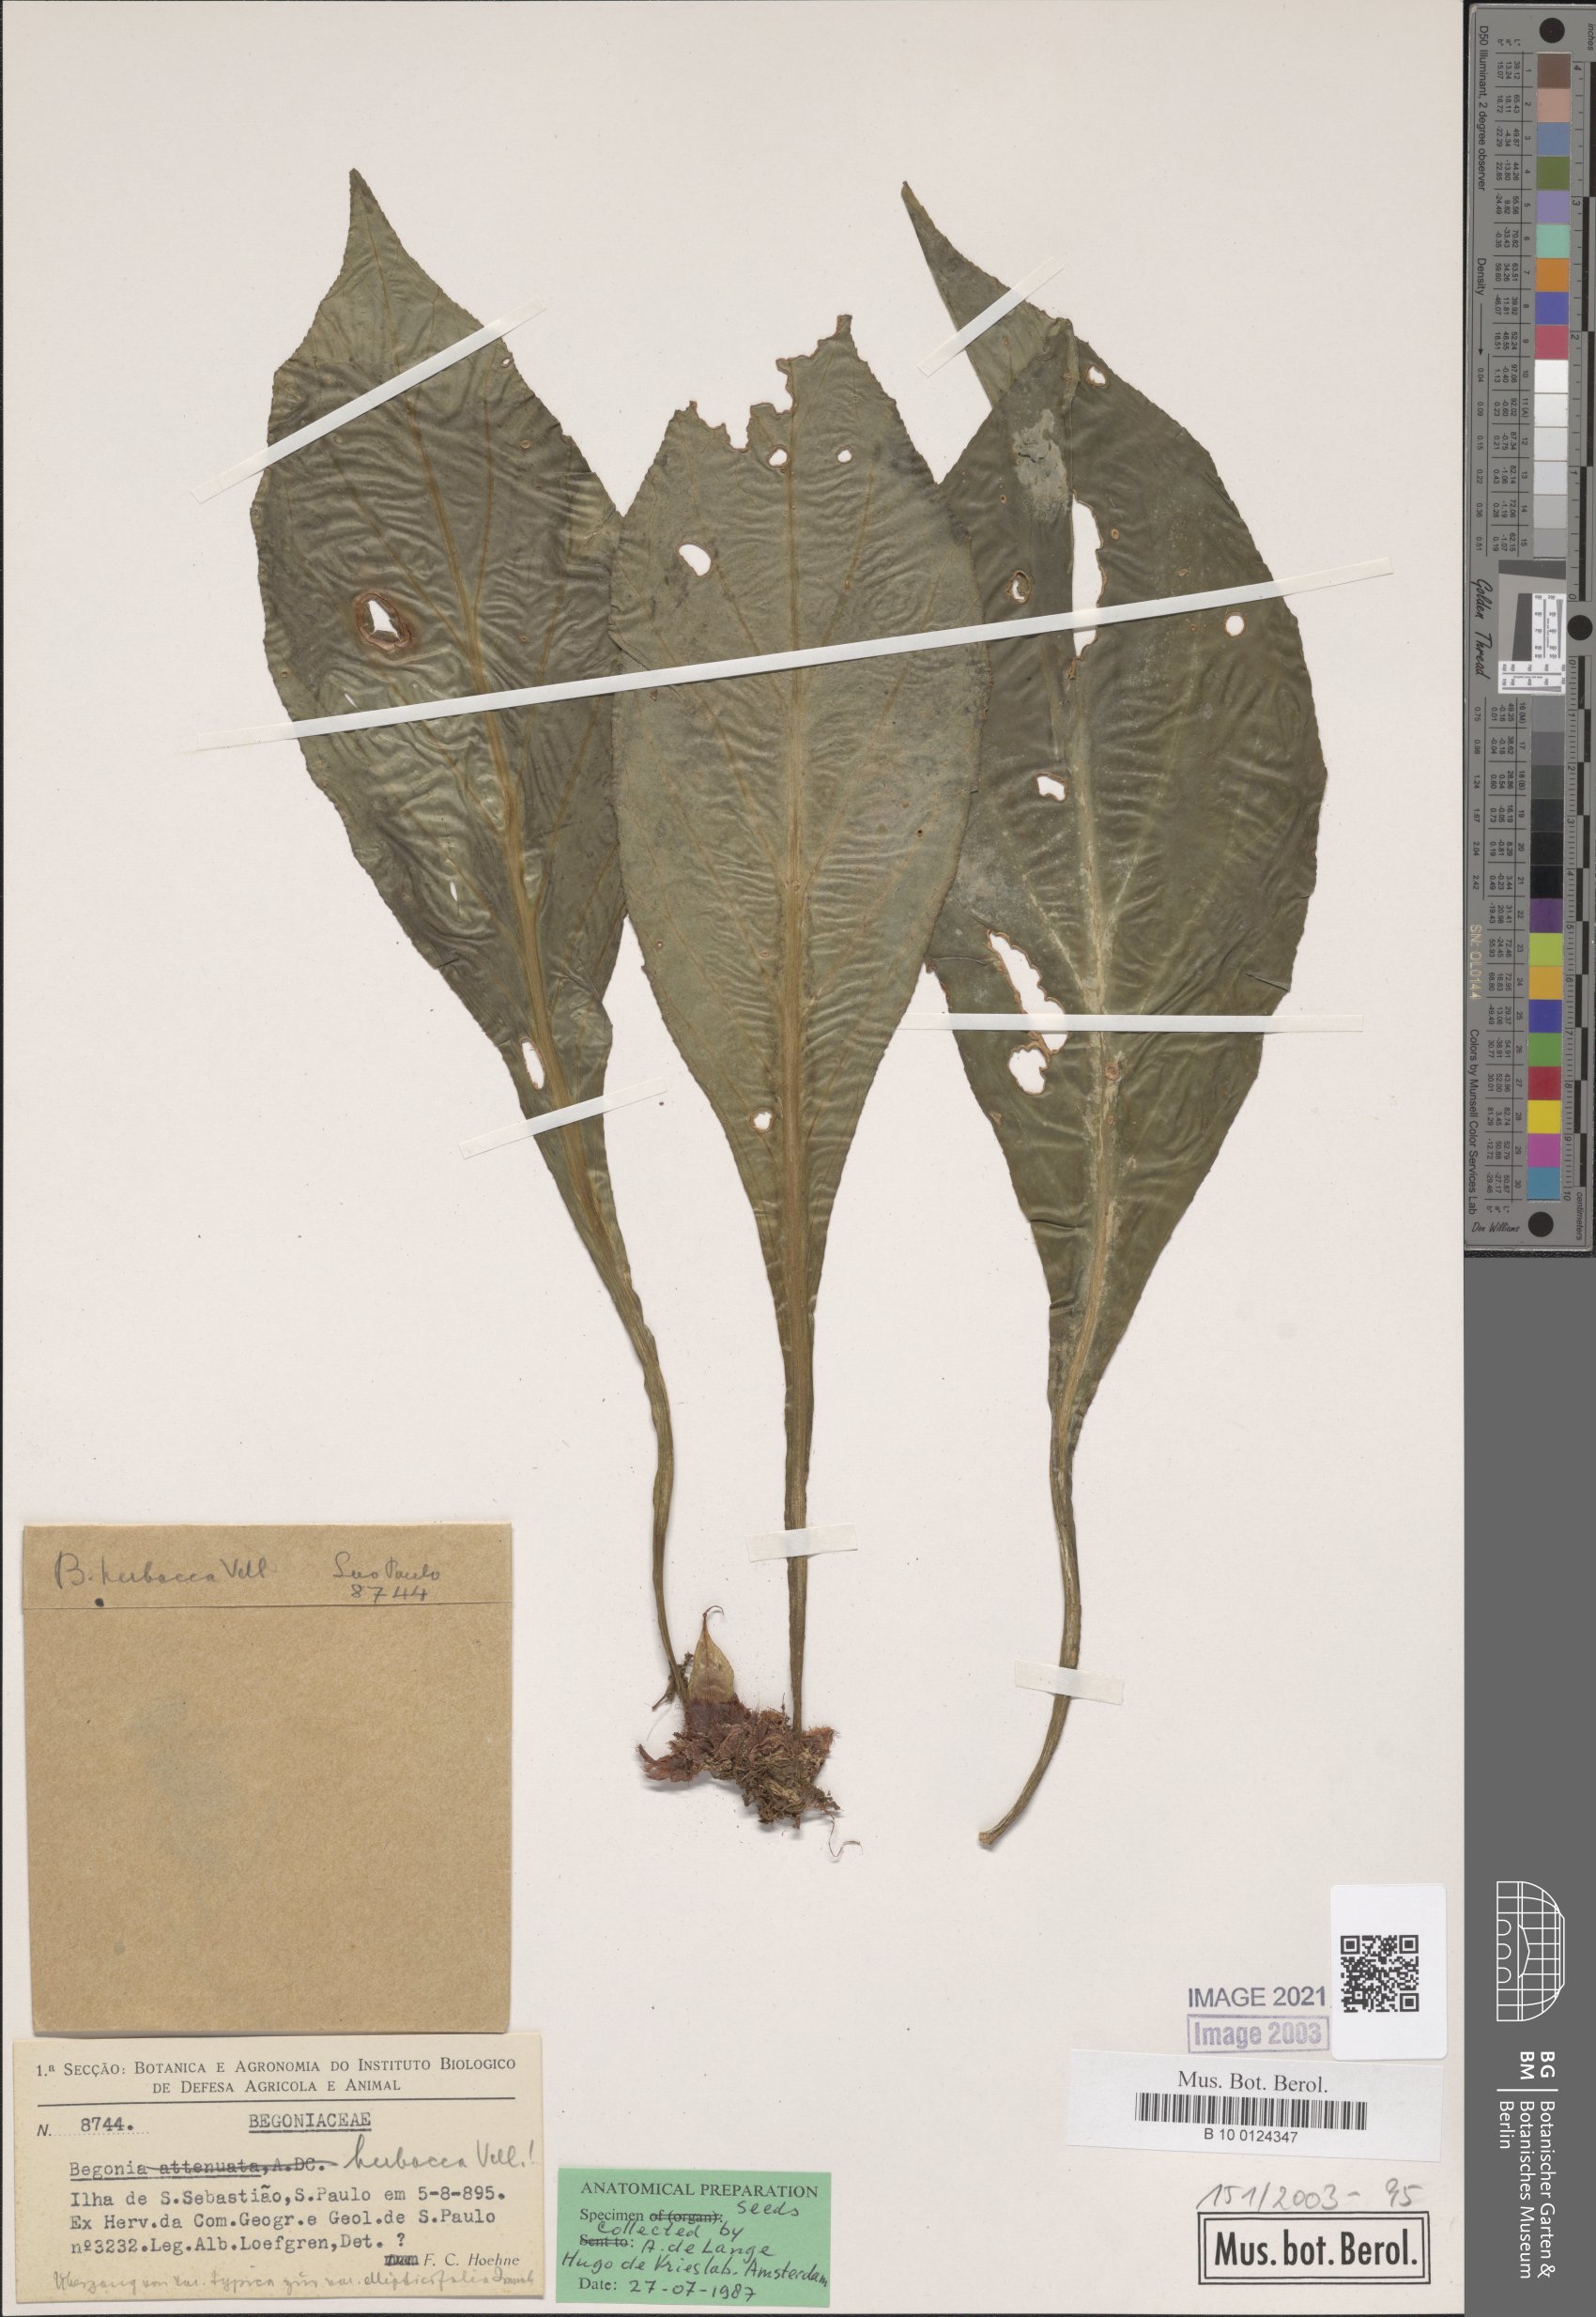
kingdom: Plantae
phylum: Tracheophyta
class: Magnoliopsida
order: Cucurbitales
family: Begoniaceae
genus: Begonia
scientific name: Begonia herbacea
